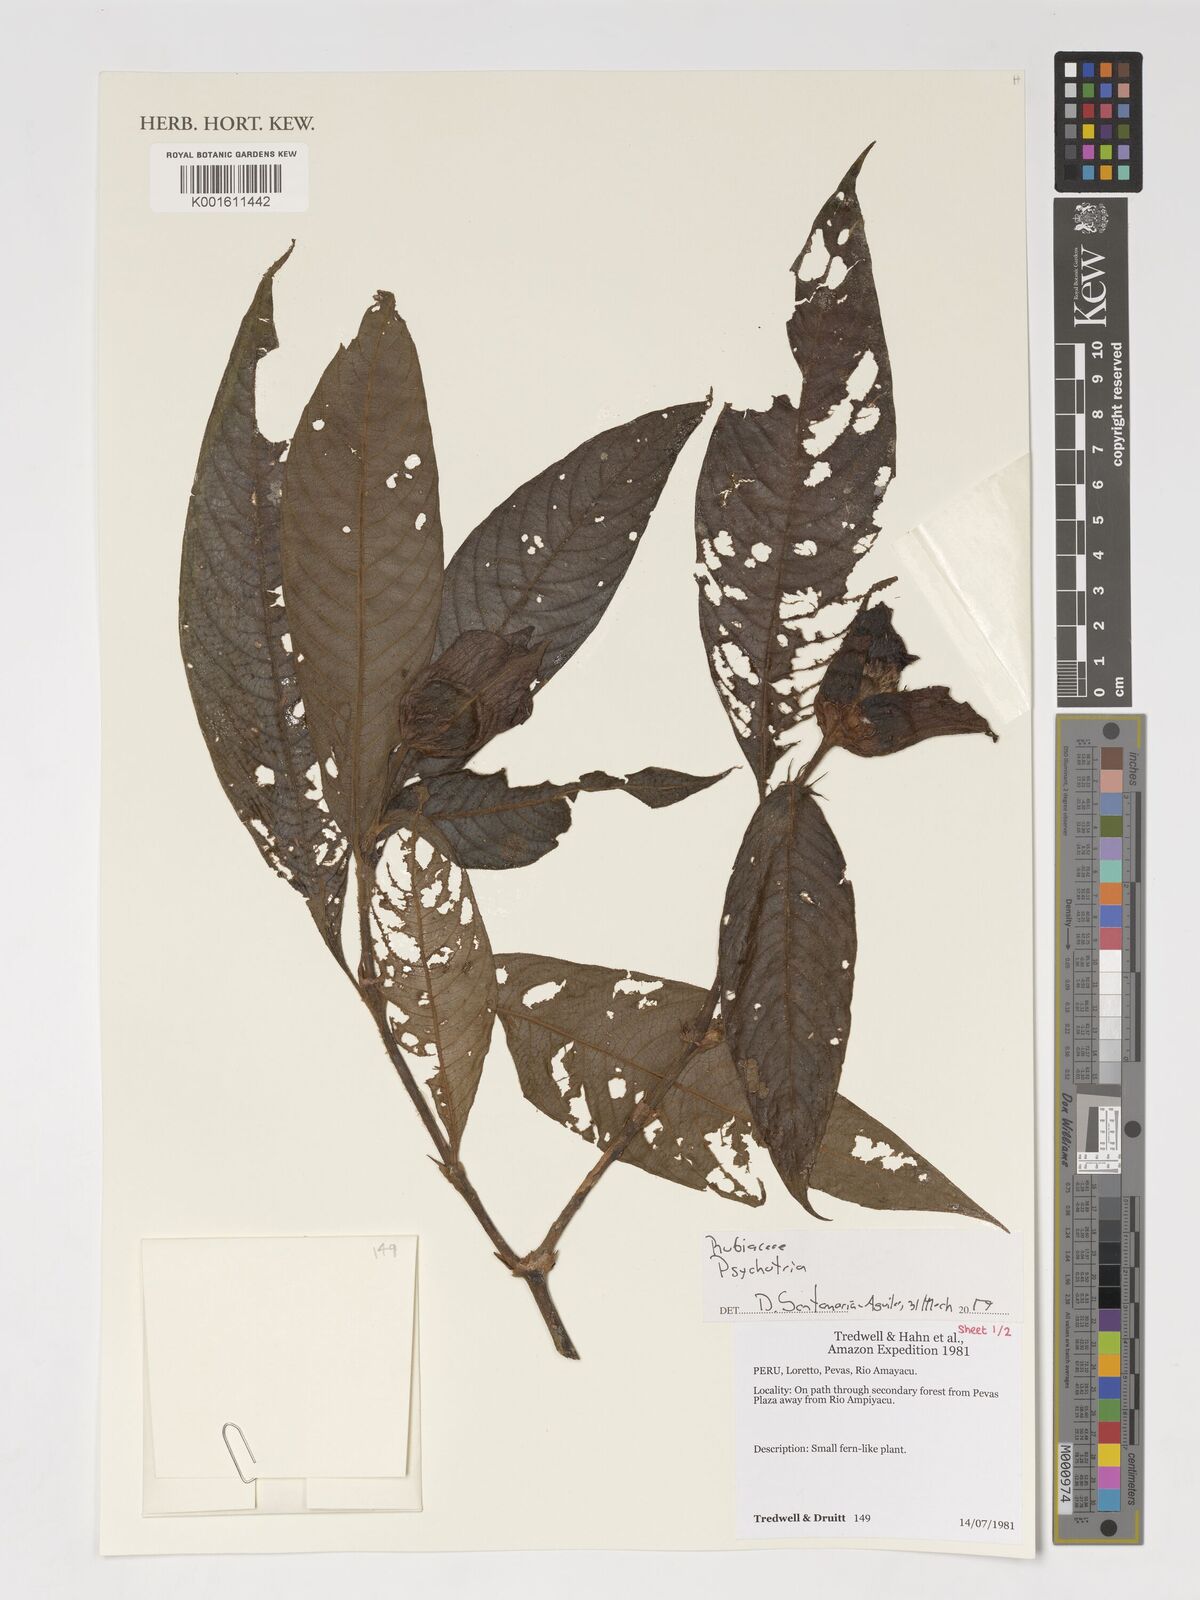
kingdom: Plantae
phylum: Tracheophyta
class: Magnoliopsida
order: Gentianales
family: Rubiaceae
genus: Psychotria
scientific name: Psychotria
